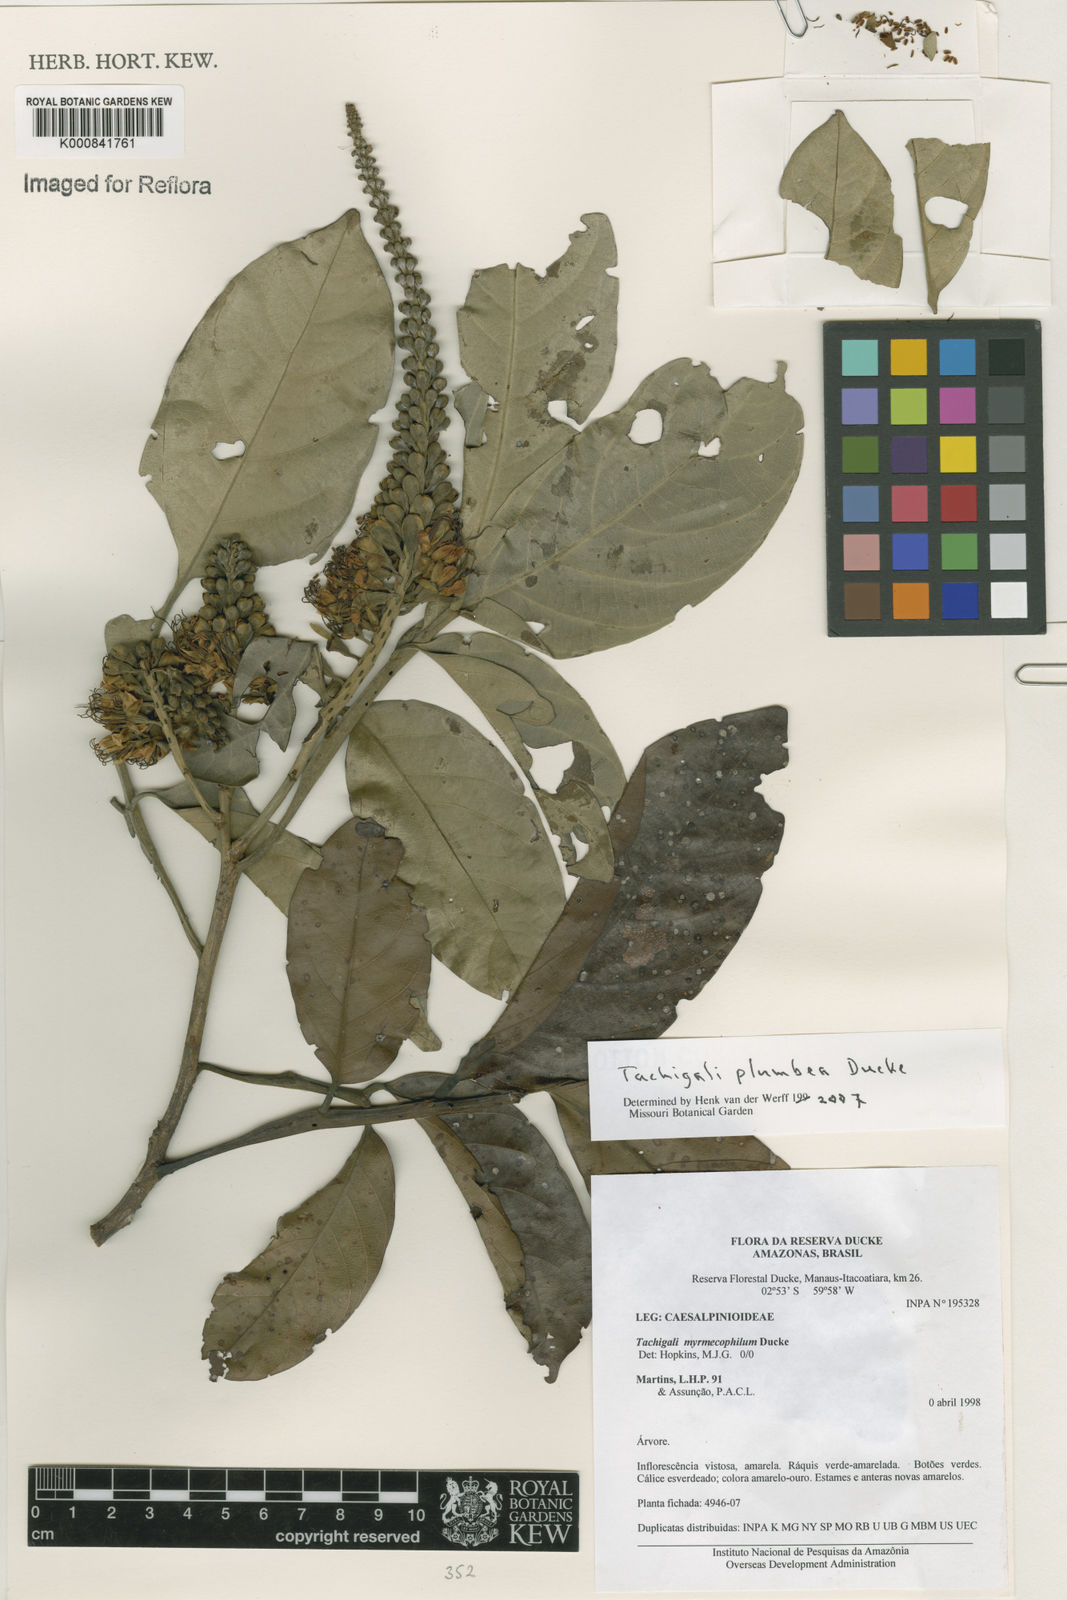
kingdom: Plantae
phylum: Tracheophyta
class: Magnoliopsida
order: Fabales
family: Fabaceae
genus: Tachigali
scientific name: Tachigali plumbea
